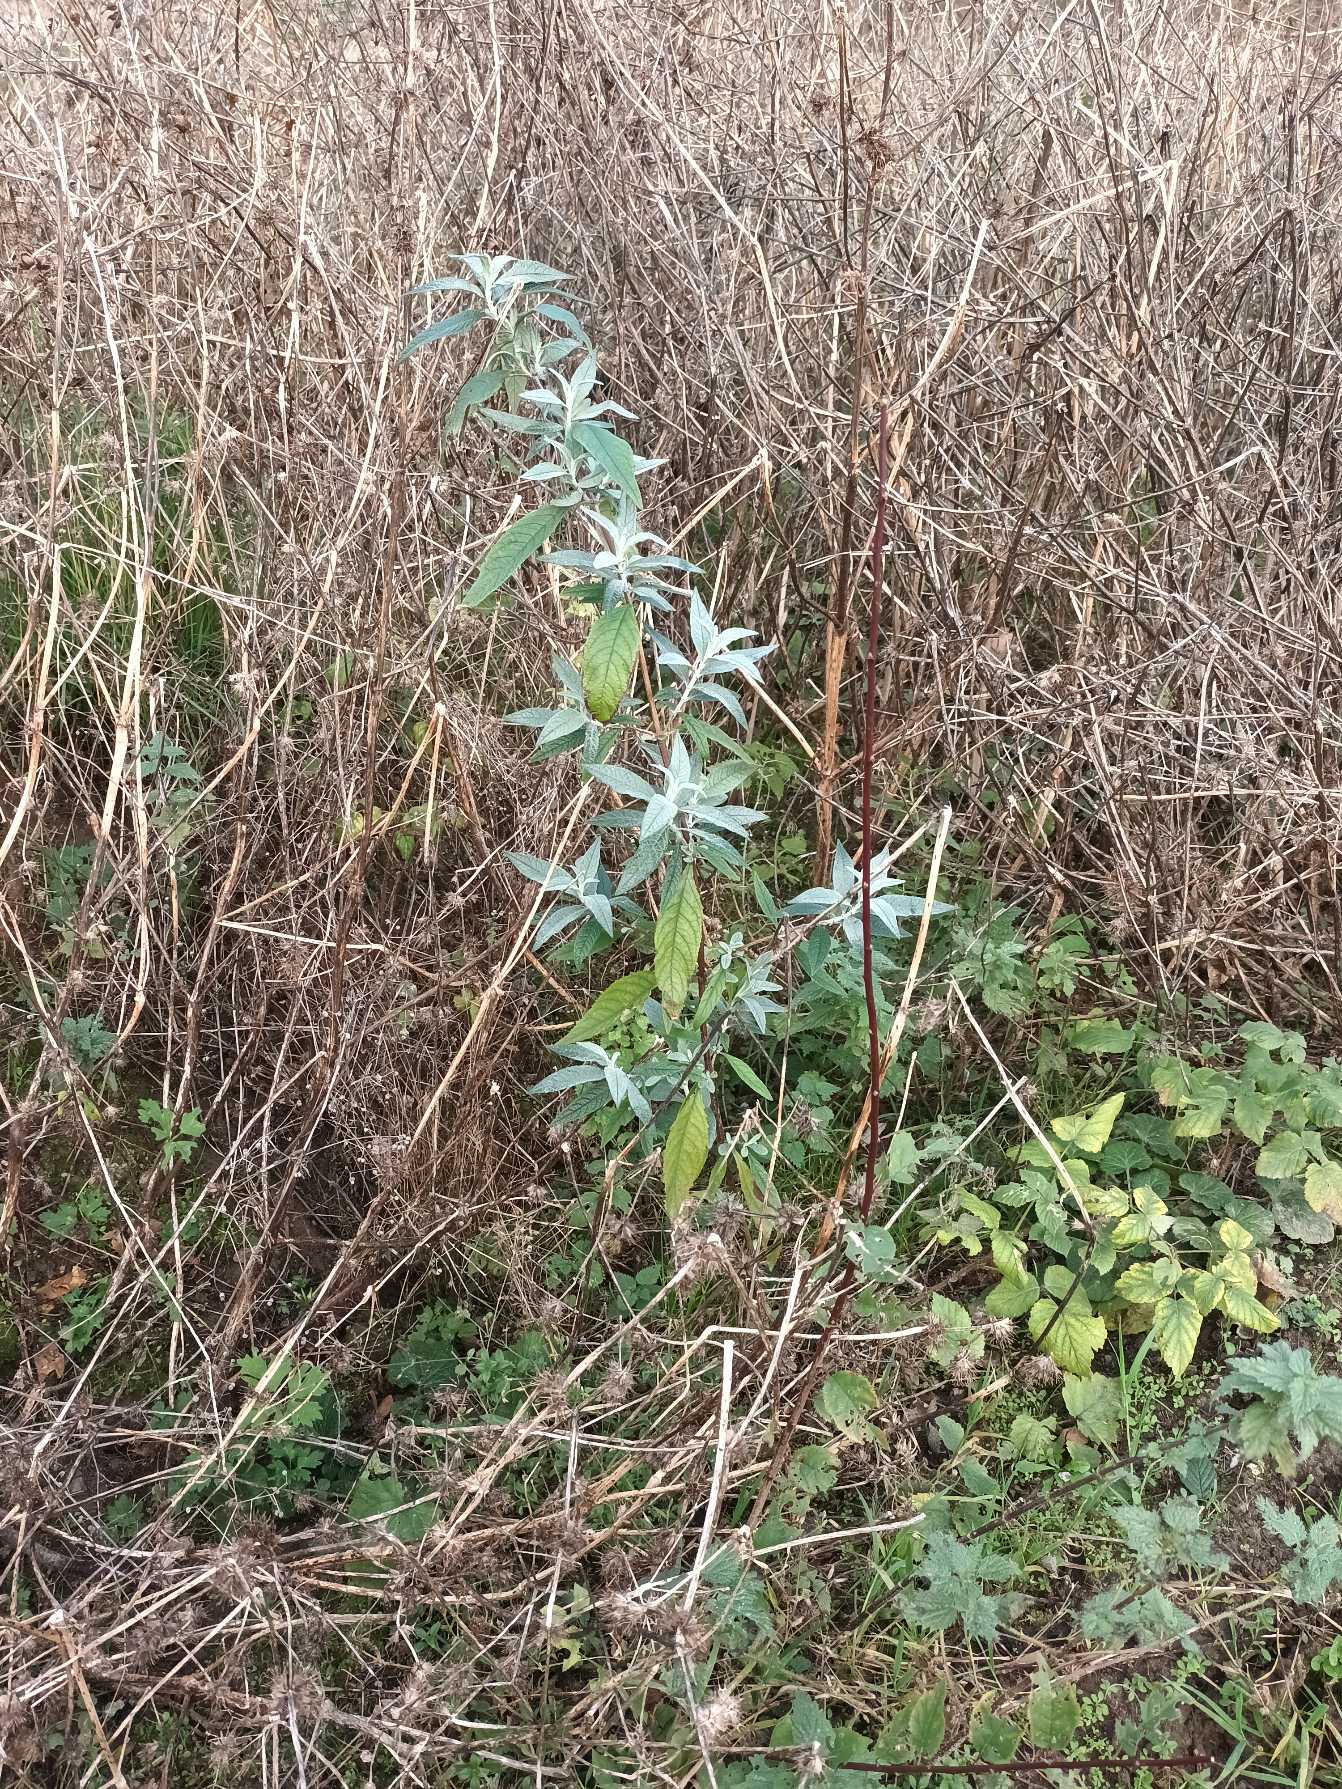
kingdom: Plantae
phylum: Tracheophyta
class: Magnoliopsida
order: Lamiales
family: Scrophulariaceae
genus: Buddleja
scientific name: Buddleja davidii
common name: Sommerfuglebusk
